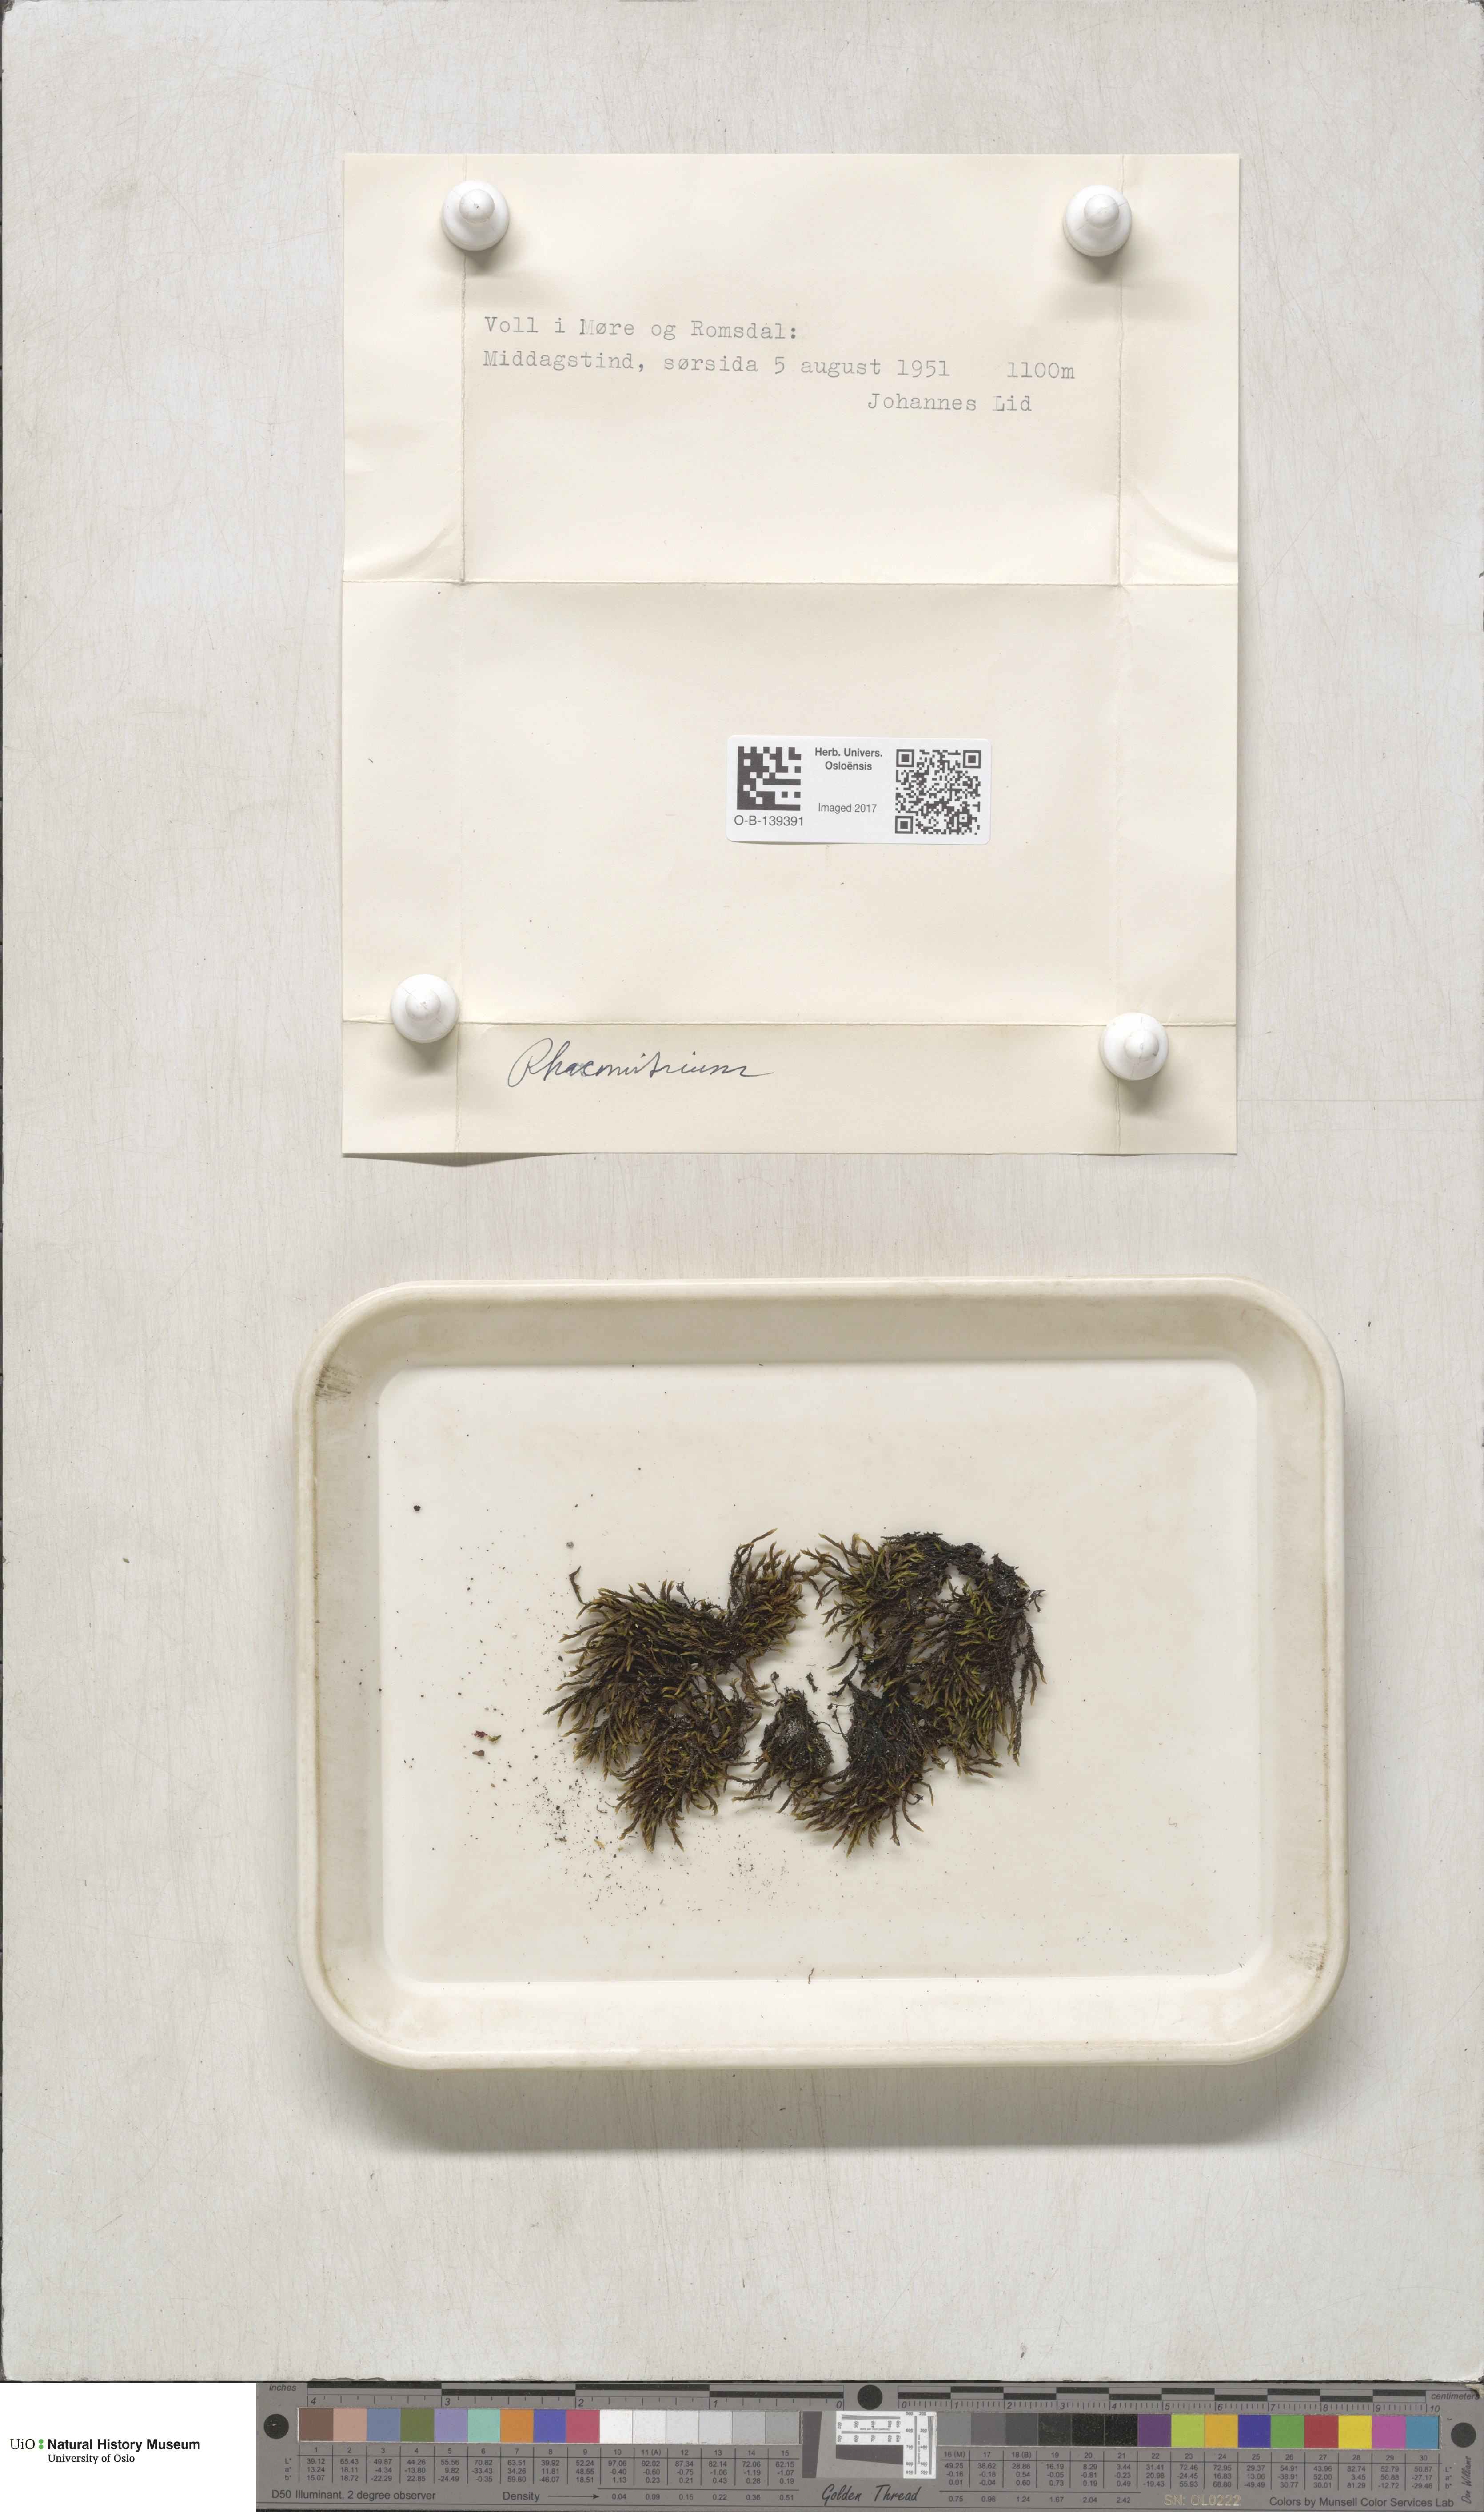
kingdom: Plantae
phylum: Bryophyta
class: Bryopsida
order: Grimmiales
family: Grimmiaceae
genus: Racomitrium
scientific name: Racomitrium
